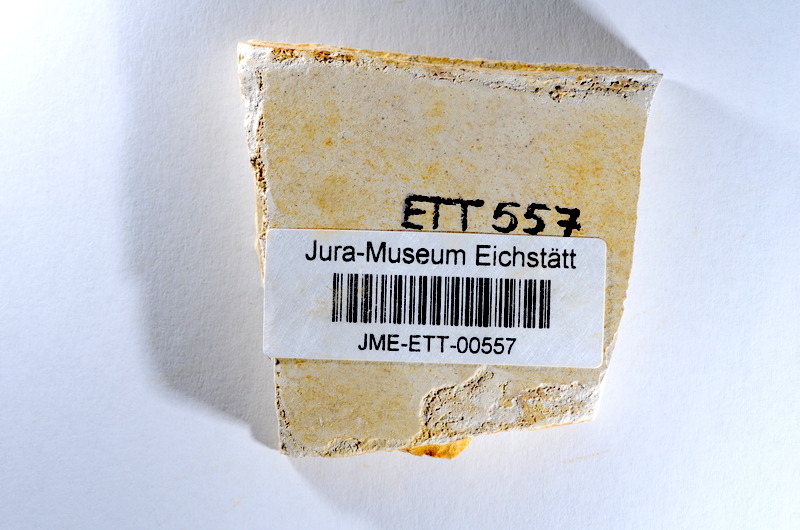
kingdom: Animalia
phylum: Chordata
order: Salmoniformes
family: Orthogonikleithridae
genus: Orthogonikleithrus
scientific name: Orthogonikleithrus hoelli
